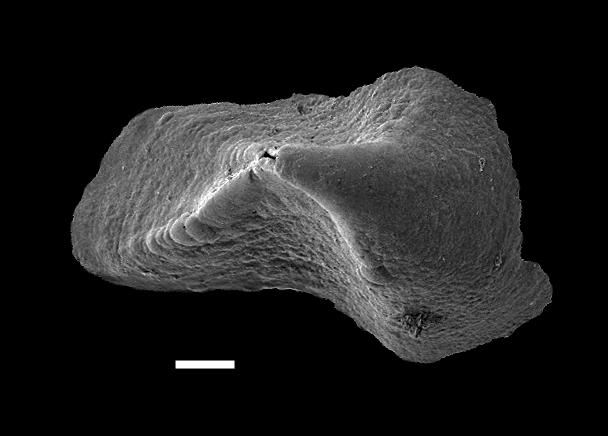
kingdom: Animalia
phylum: Annelida
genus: Ambalodus
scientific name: Ambalodus mitratus
